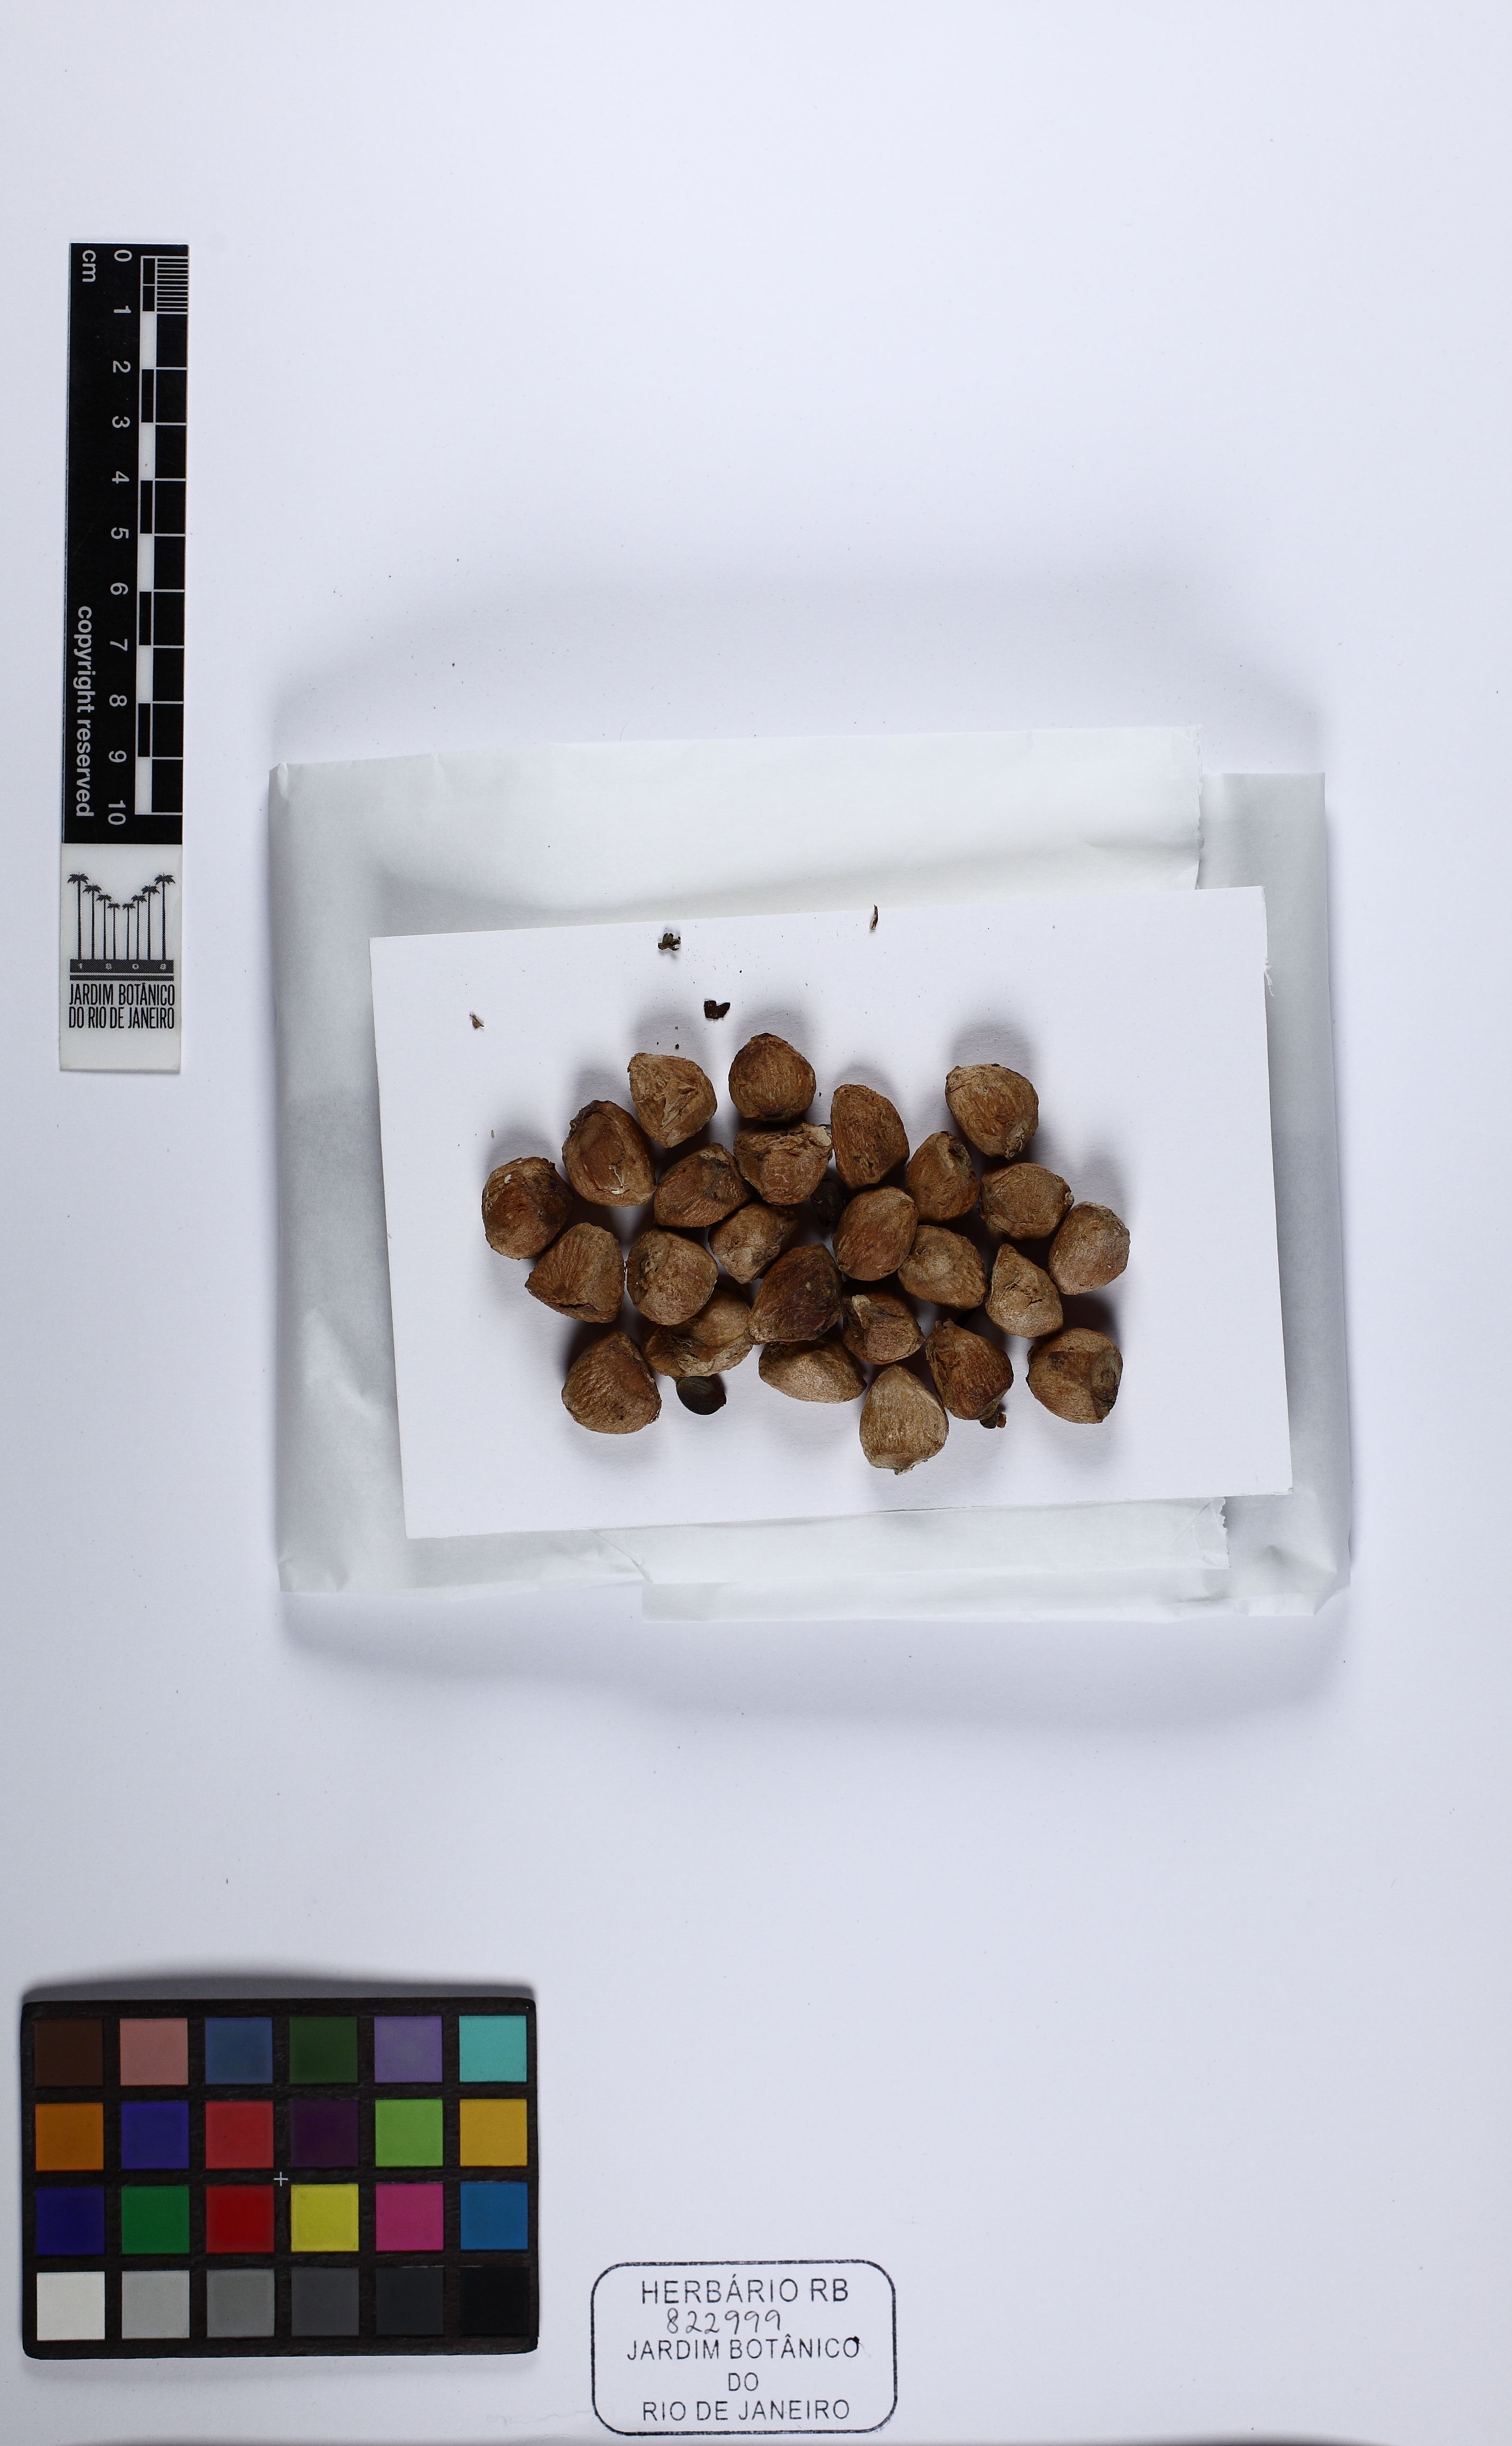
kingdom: Plantae
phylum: Tracheophyta
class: Magnoliopsida
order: Malpighiales
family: Achariaceae
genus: Carpotroche
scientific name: Carpotroche brasiliensis
